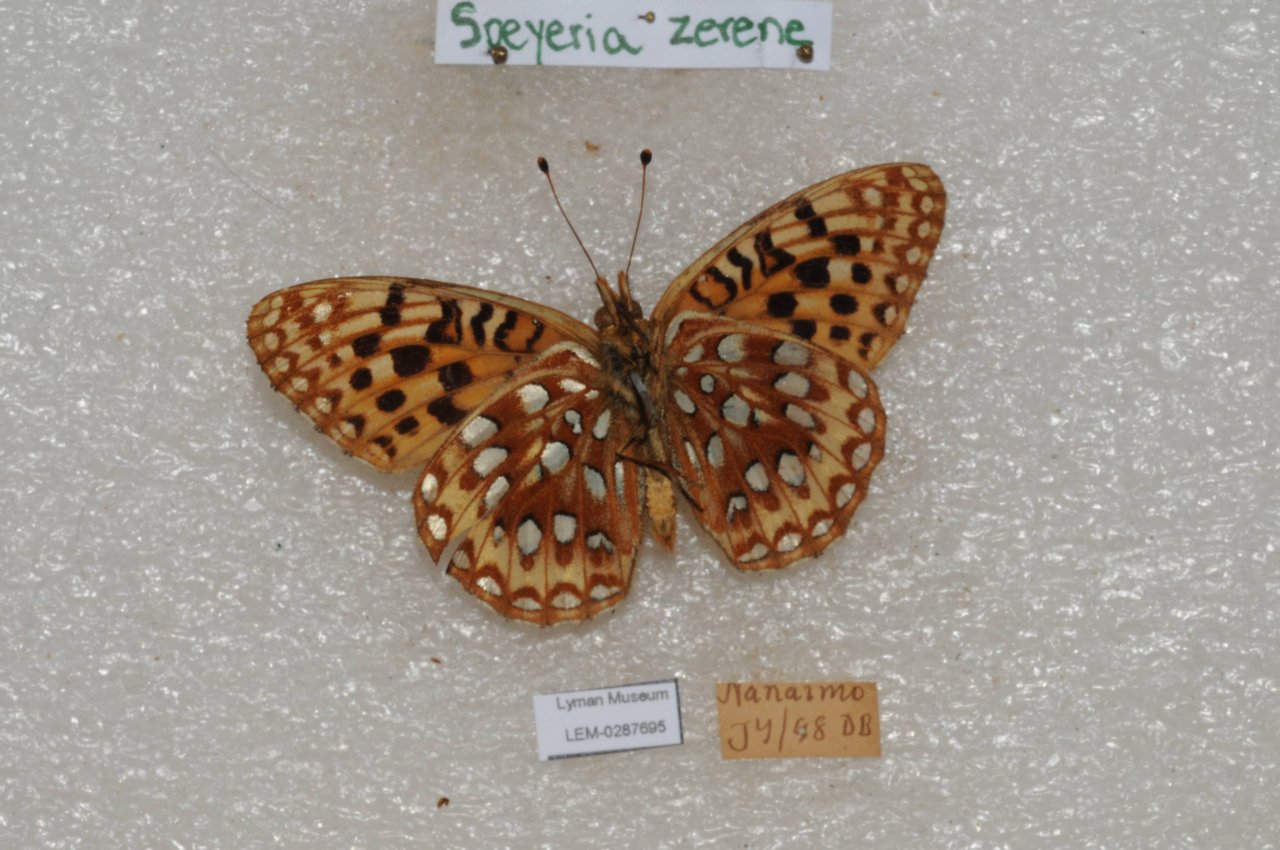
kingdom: Animalia
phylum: Arthropoda
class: Insecta
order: Lepidoptera
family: Nymphalidae
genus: Speyeria
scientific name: Speyeria zerene
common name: Zerene Fritillary
